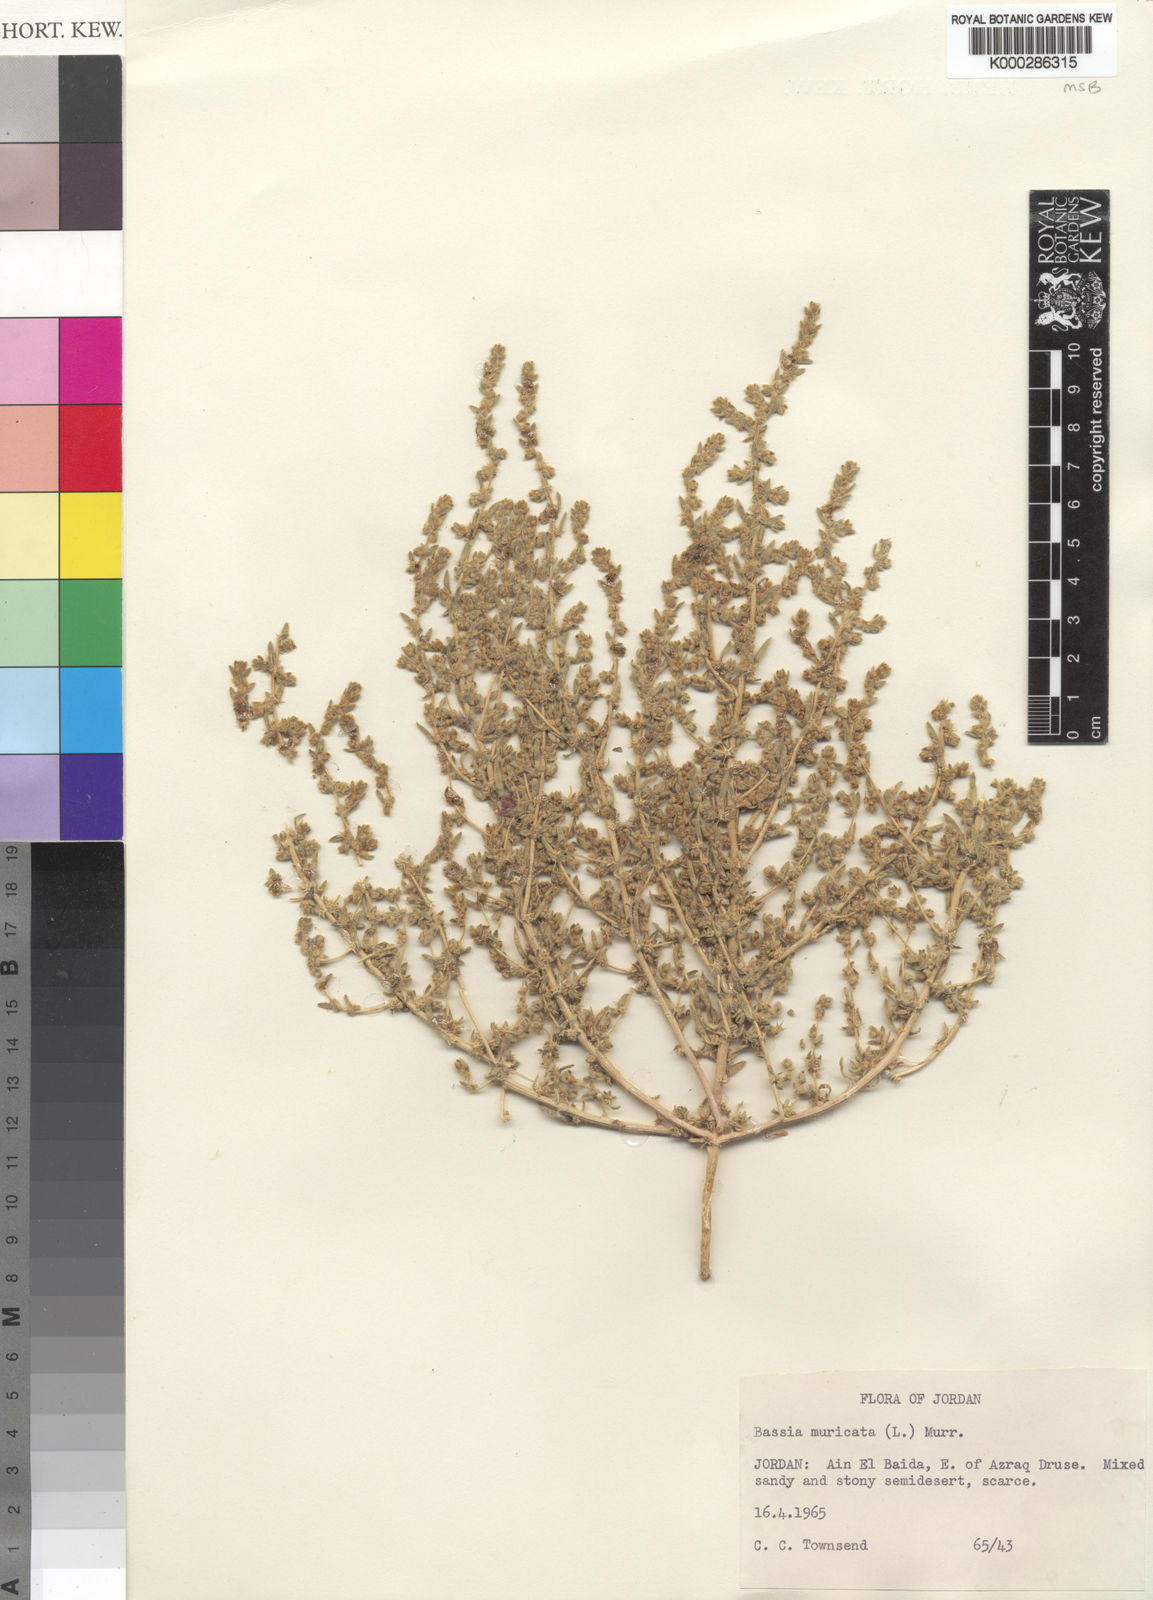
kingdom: Plantae
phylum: Tracheophyta
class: Magnoliopsida
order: Caryophyllales
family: Amaranthaceae
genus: Bassia
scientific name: Bassia muricata
